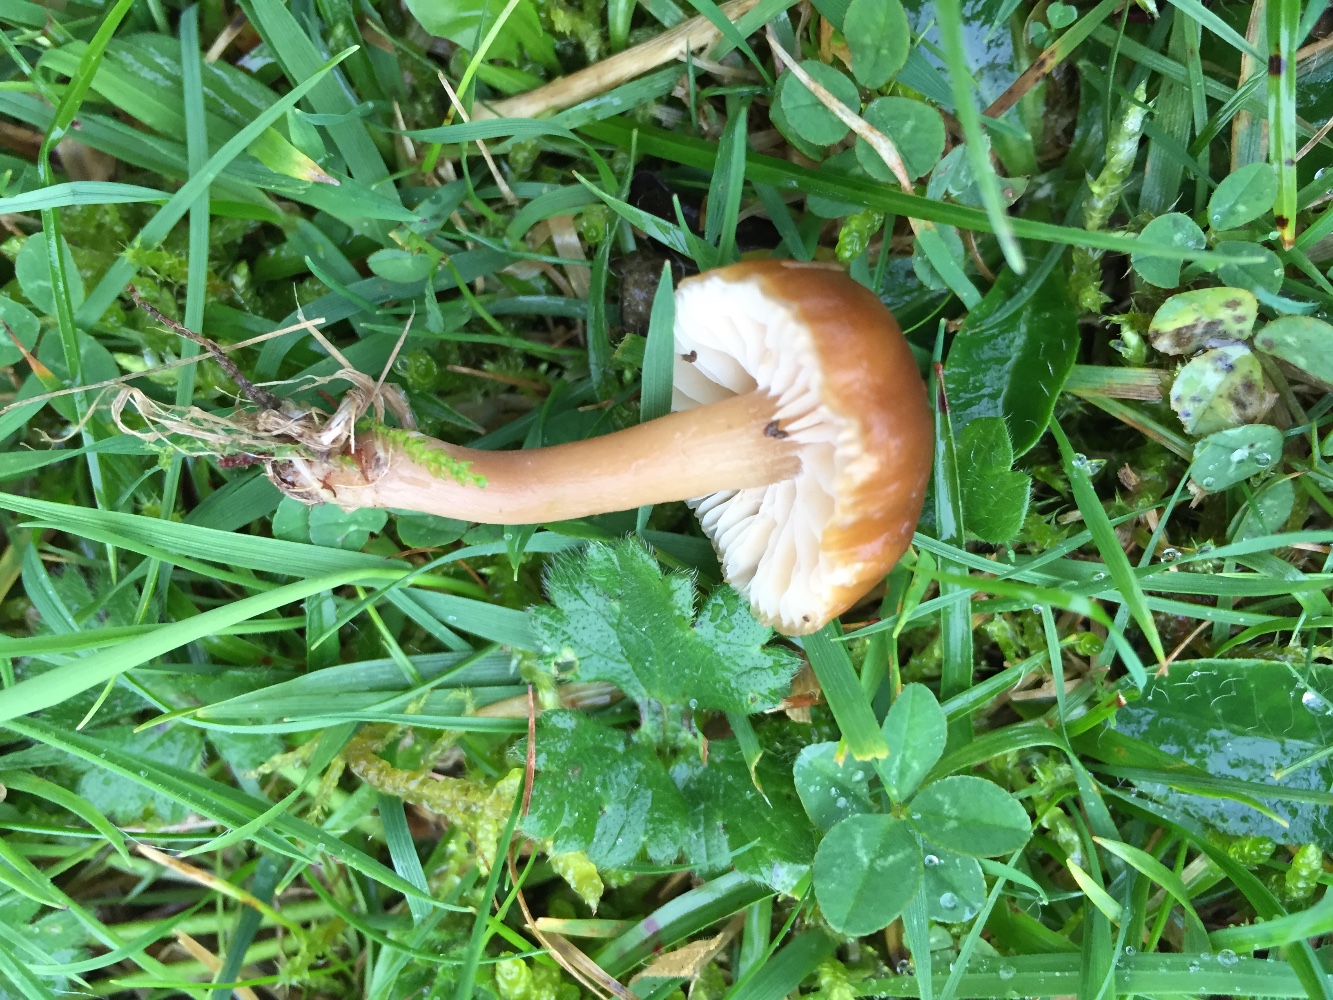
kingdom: Fungi
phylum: Basidiomycota
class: Agaricomycetes
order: Agaricales
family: Clavariaceae
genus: Camarophyllopsis
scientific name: Camarophyllopsis schulzeri
